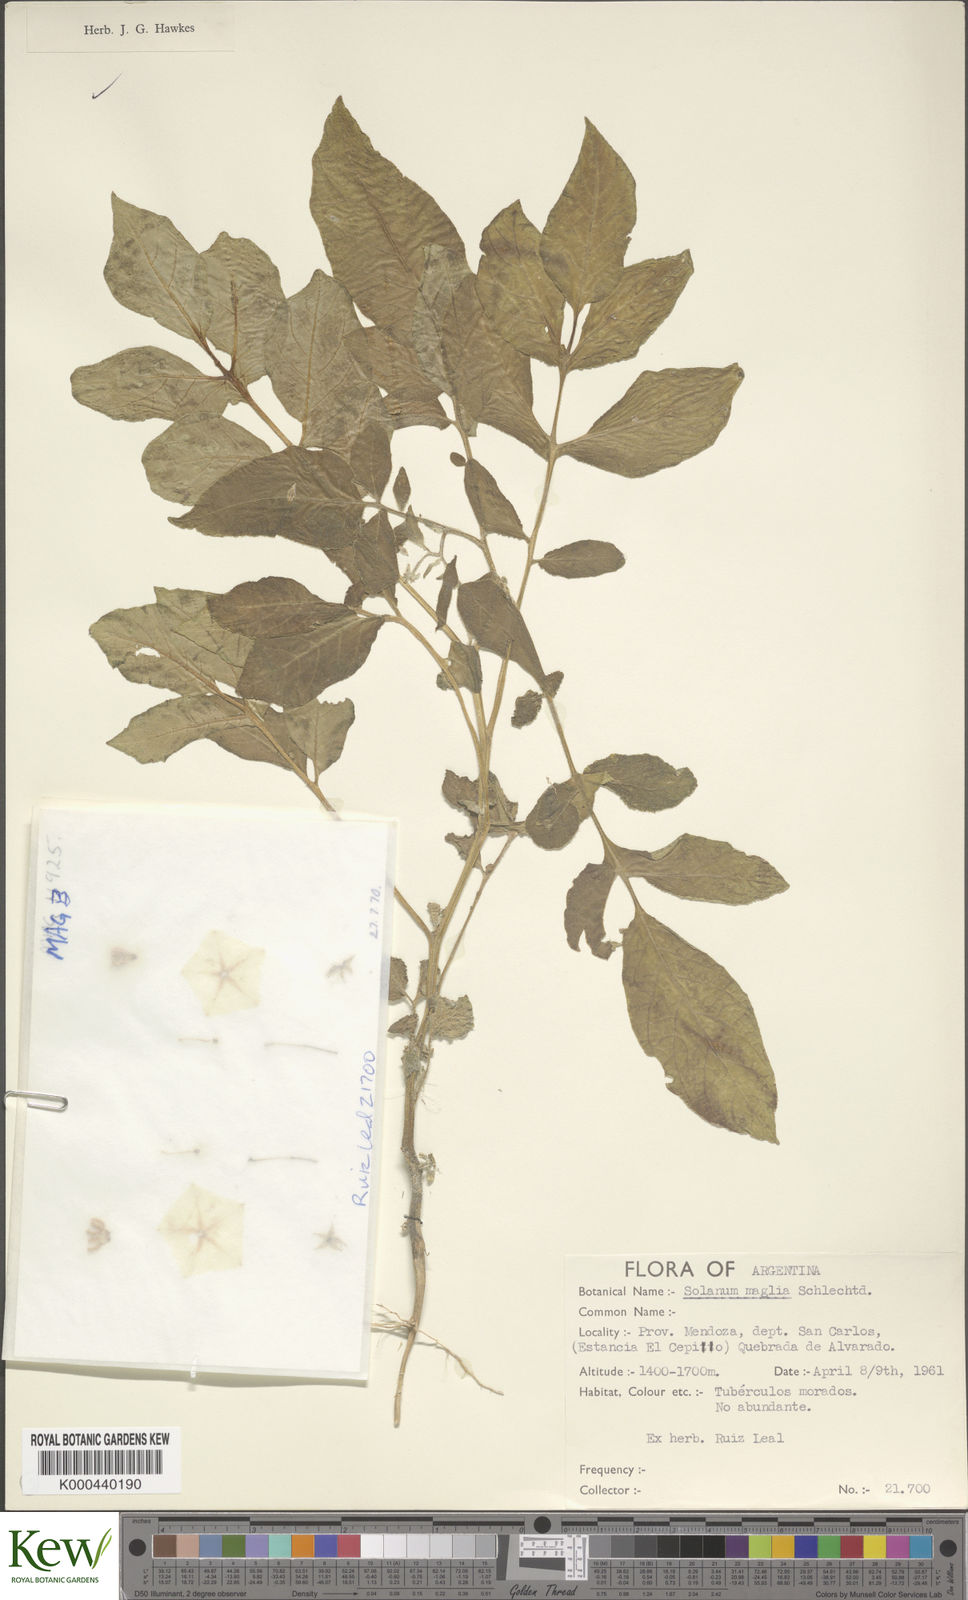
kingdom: Plantae
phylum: Tracheophyta
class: Magnoliopsida
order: Solanales
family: Solanaceae
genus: Solanum
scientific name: Solanum maglia
